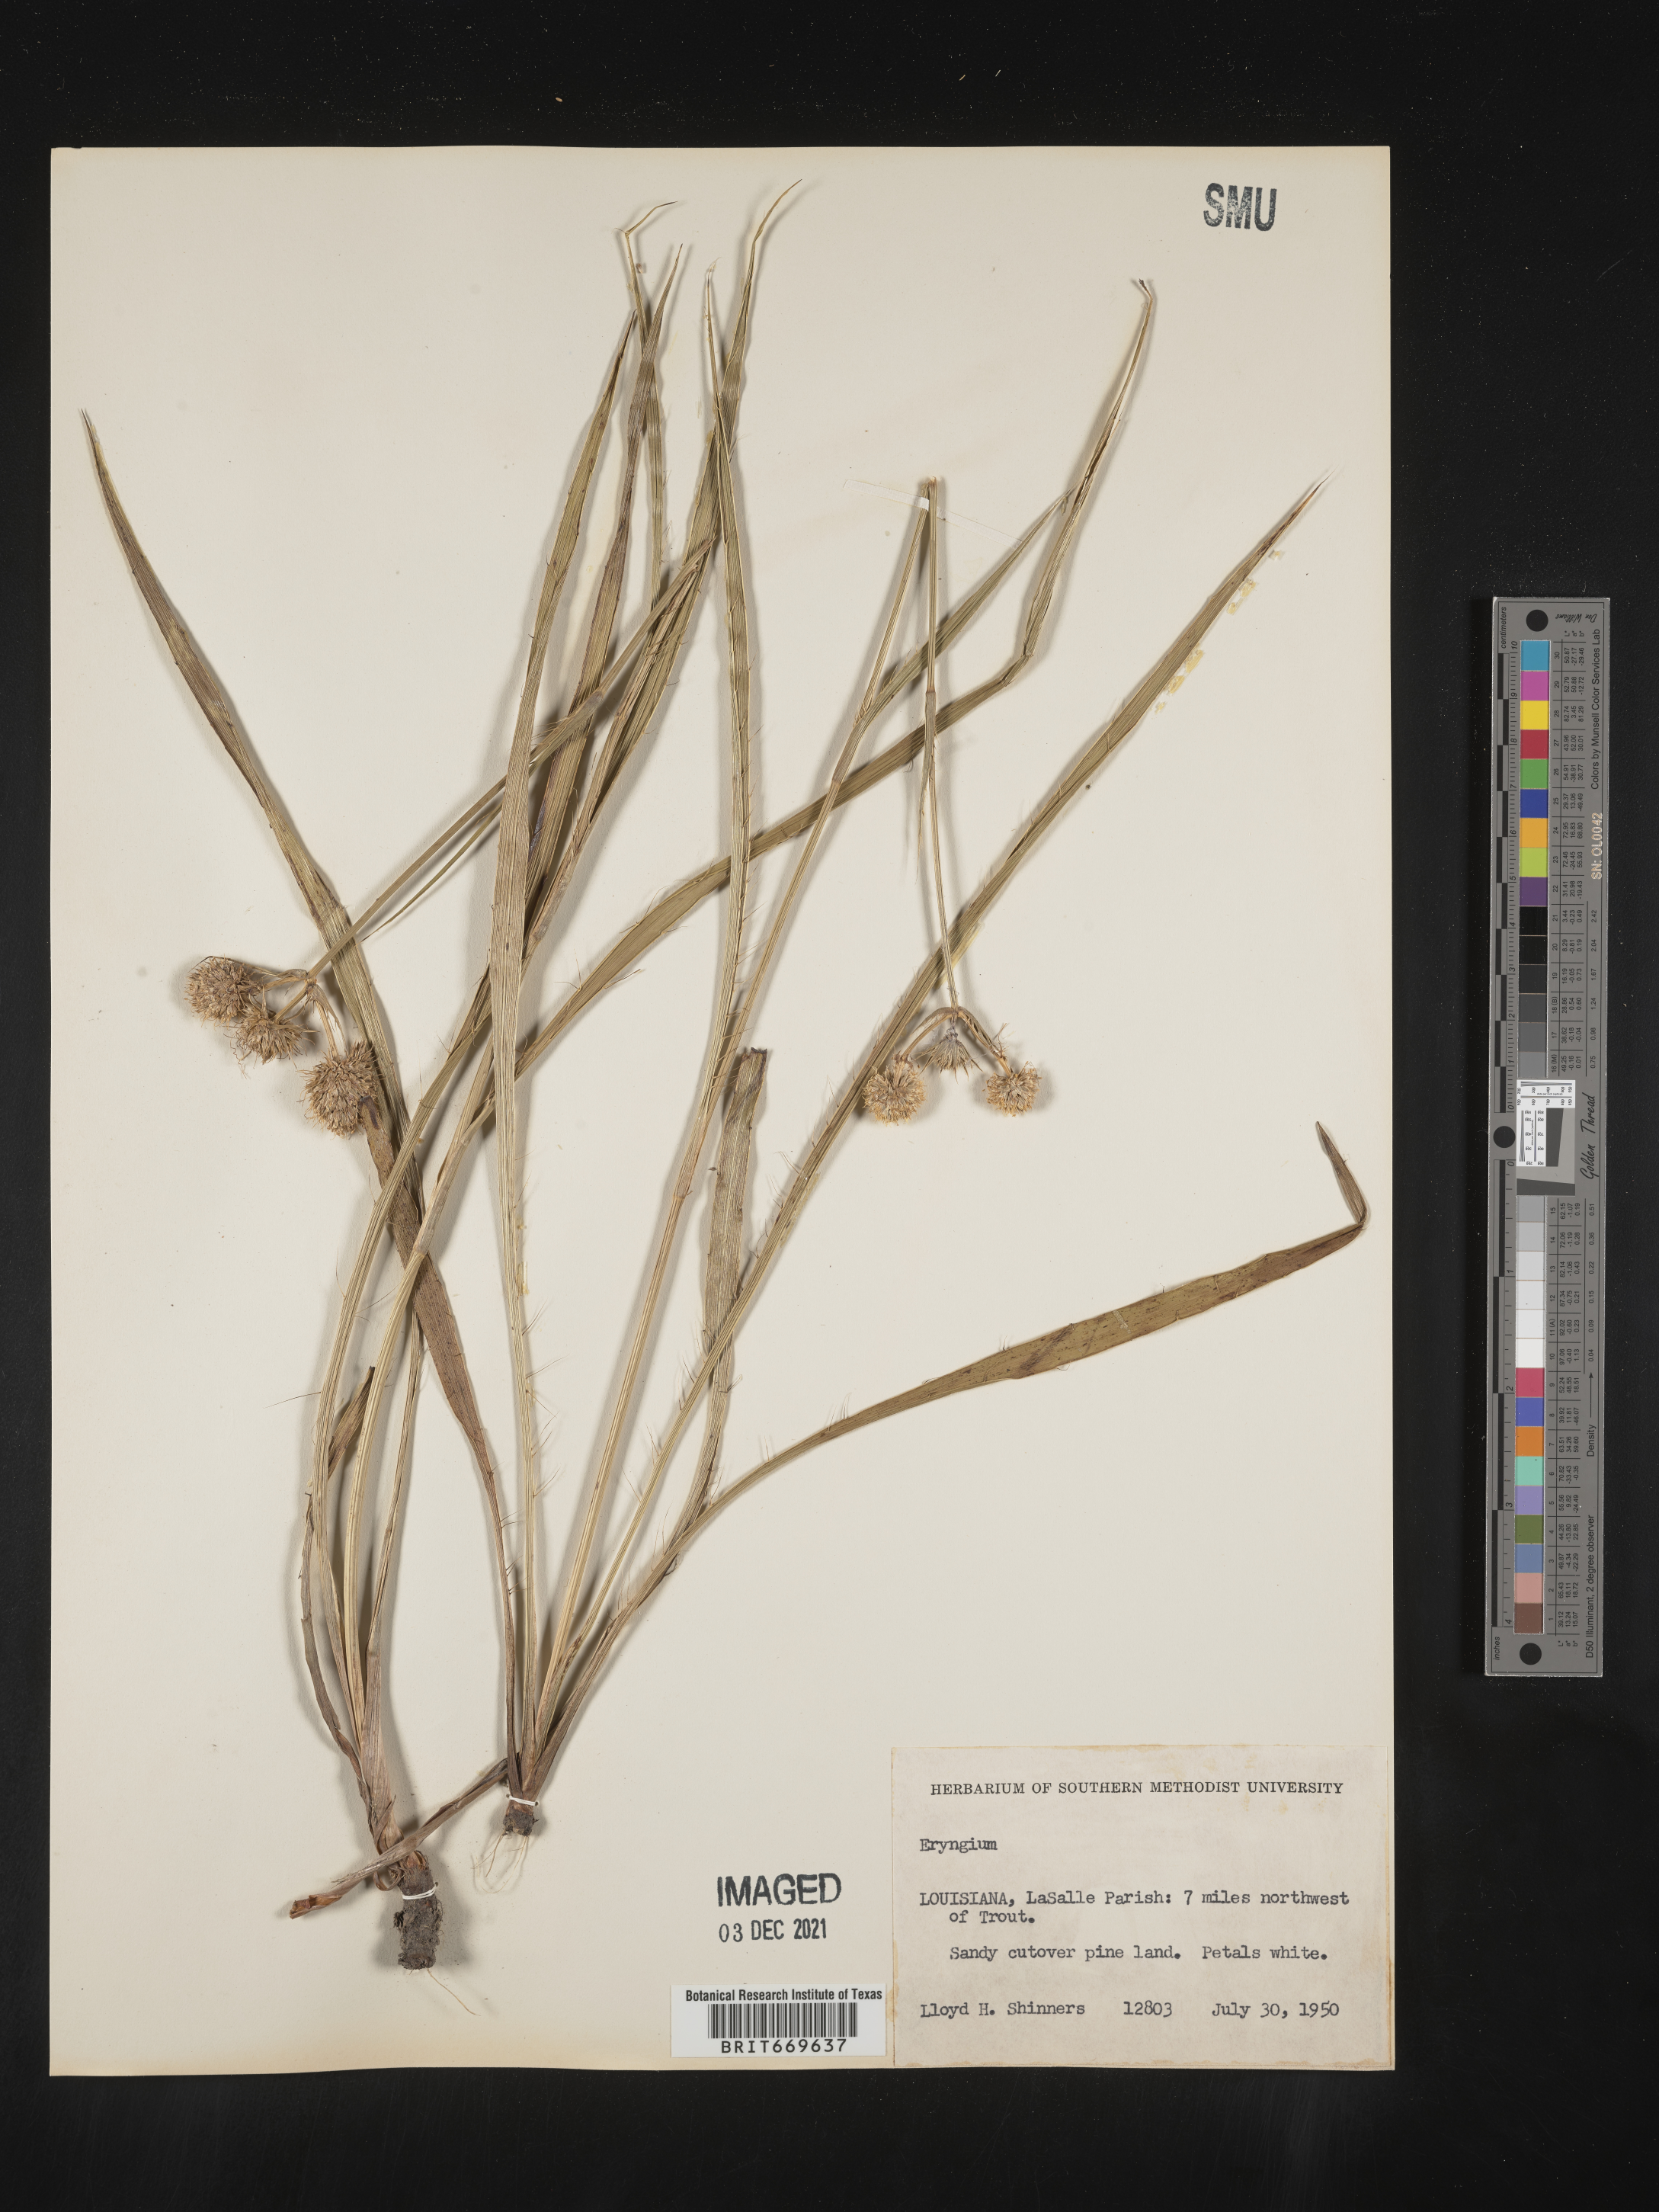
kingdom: Plantae
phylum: Tracheophyta
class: Magnoliopsida
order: Apiales
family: Apiaceae
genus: Eryngium
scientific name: Eryngium
